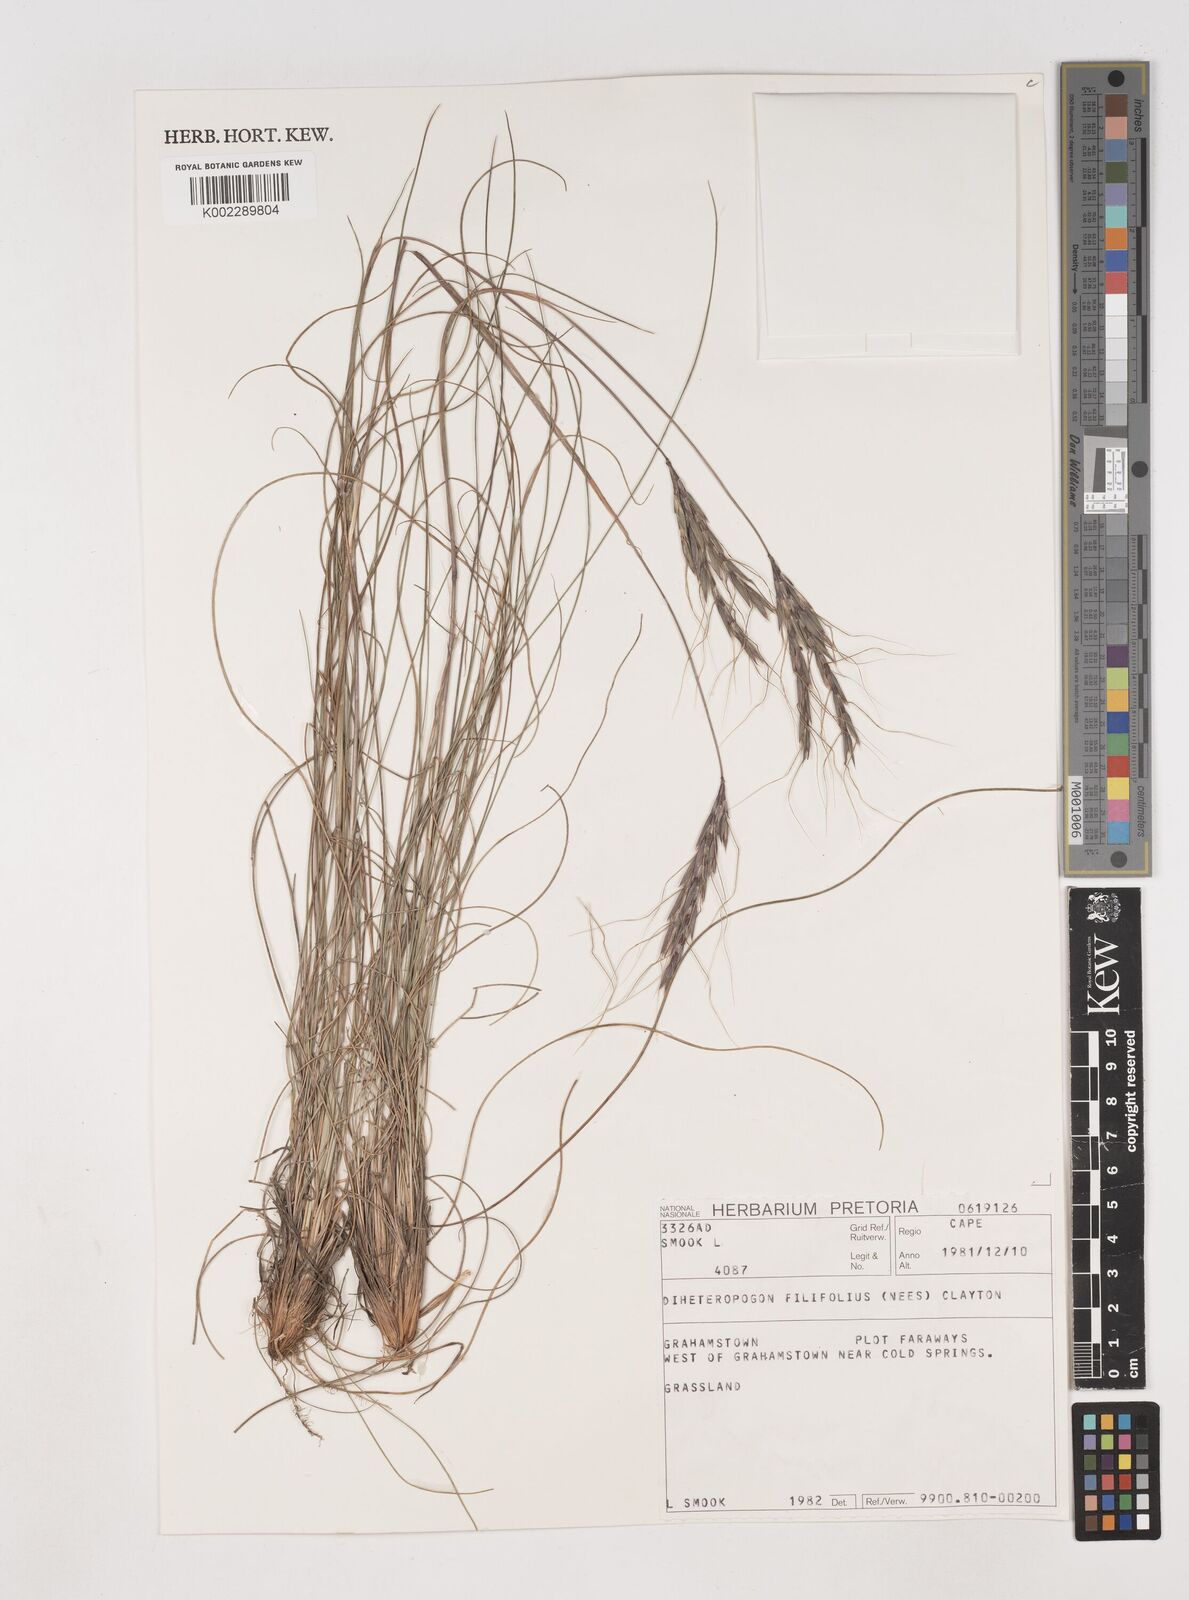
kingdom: Plantae
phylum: Tracheophyta
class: Liliopsida
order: Poales
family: Poaceae
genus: Diheteropogon
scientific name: Diheteropogon filifolius
